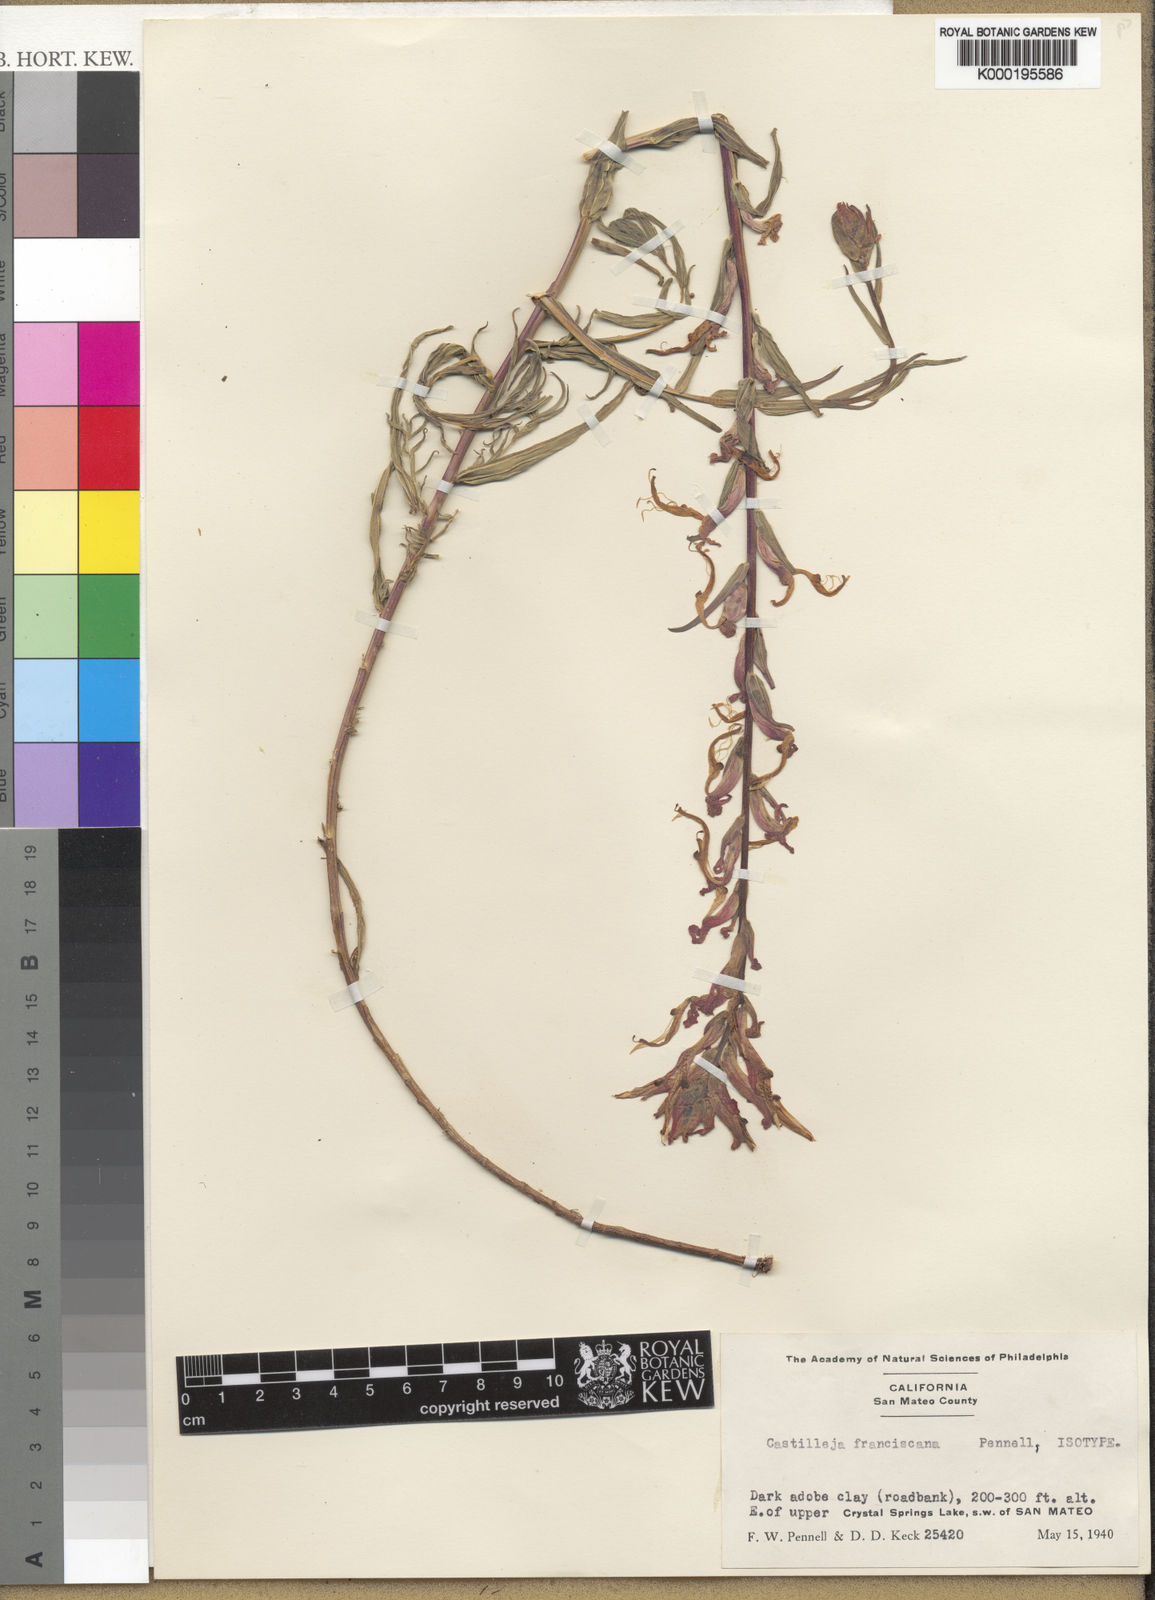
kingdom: Plantae
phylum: Tracheophyta
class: Magnoliopsida
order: Lamiales
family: Orobanchaceae
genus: Castilleja
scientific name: Castilleja subinclusa
